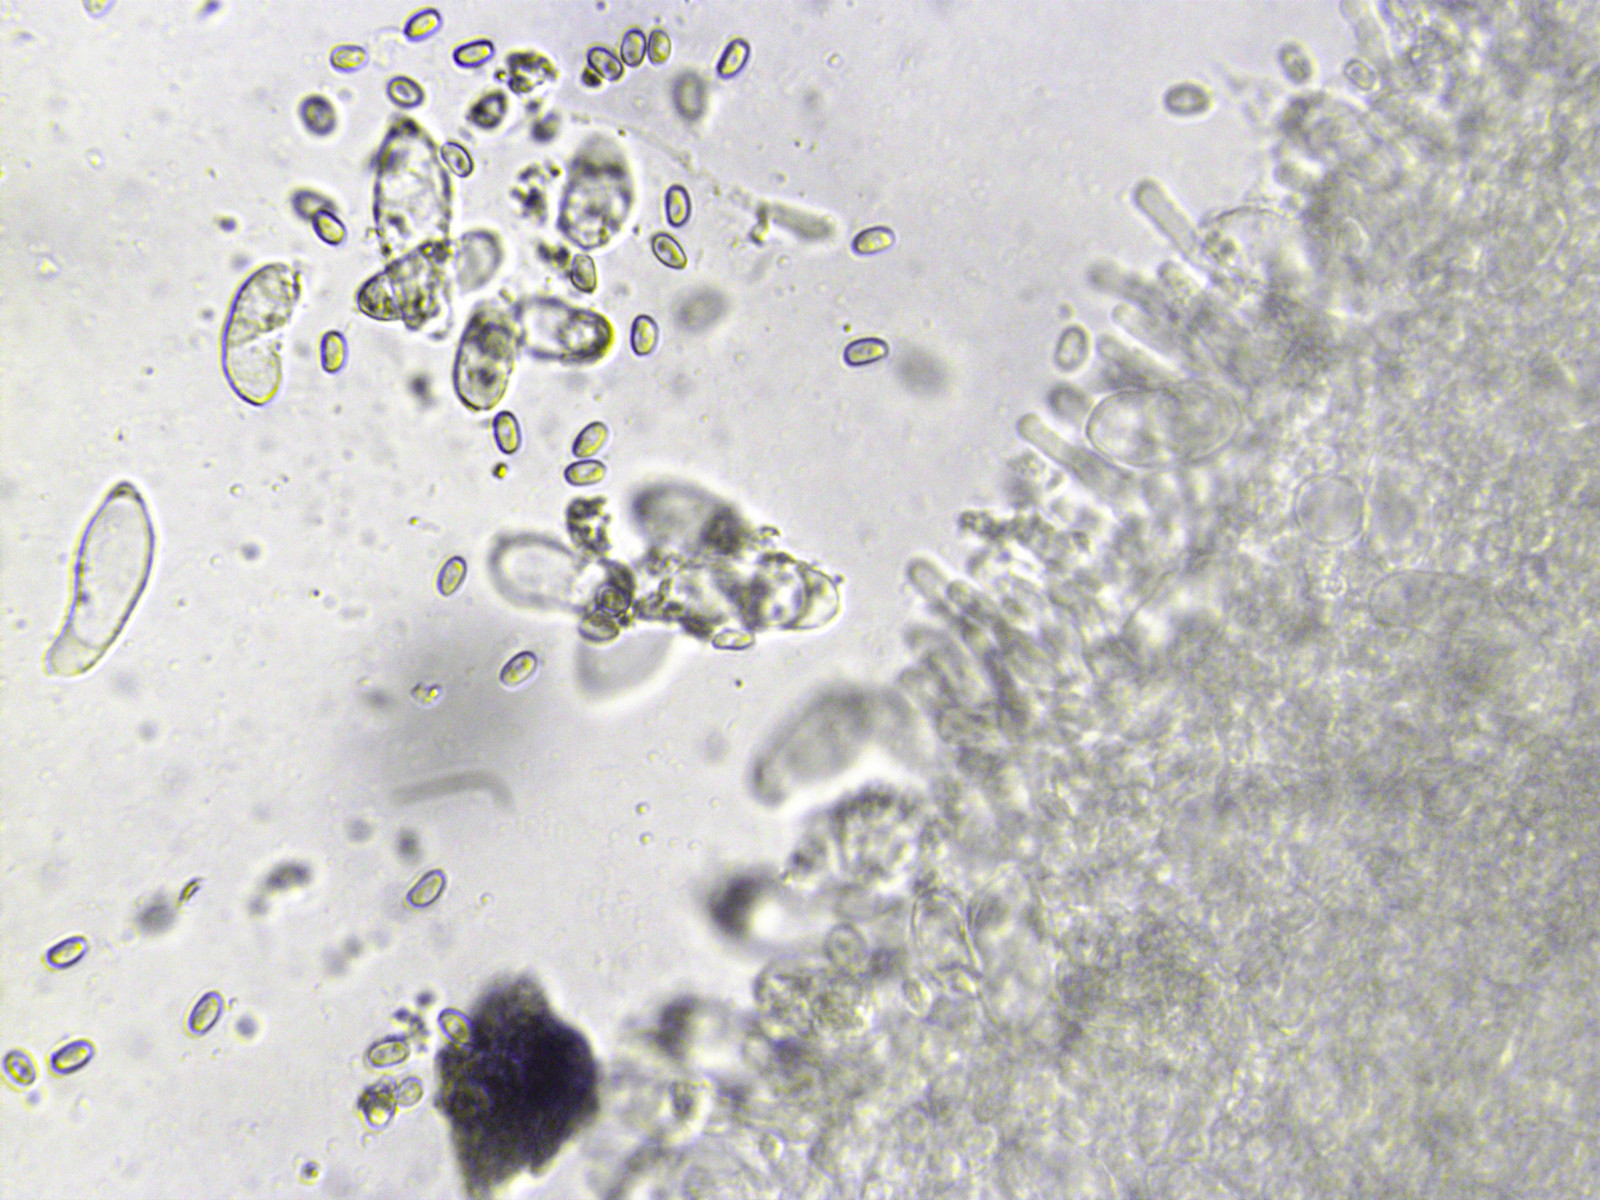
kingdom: Fungi
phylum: Basidiomycota
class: Agaricomycetes
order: Agaricales
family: Hymenogastraceae
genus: Flammula
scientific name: Flammula alnicola
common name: elle-skælhat
